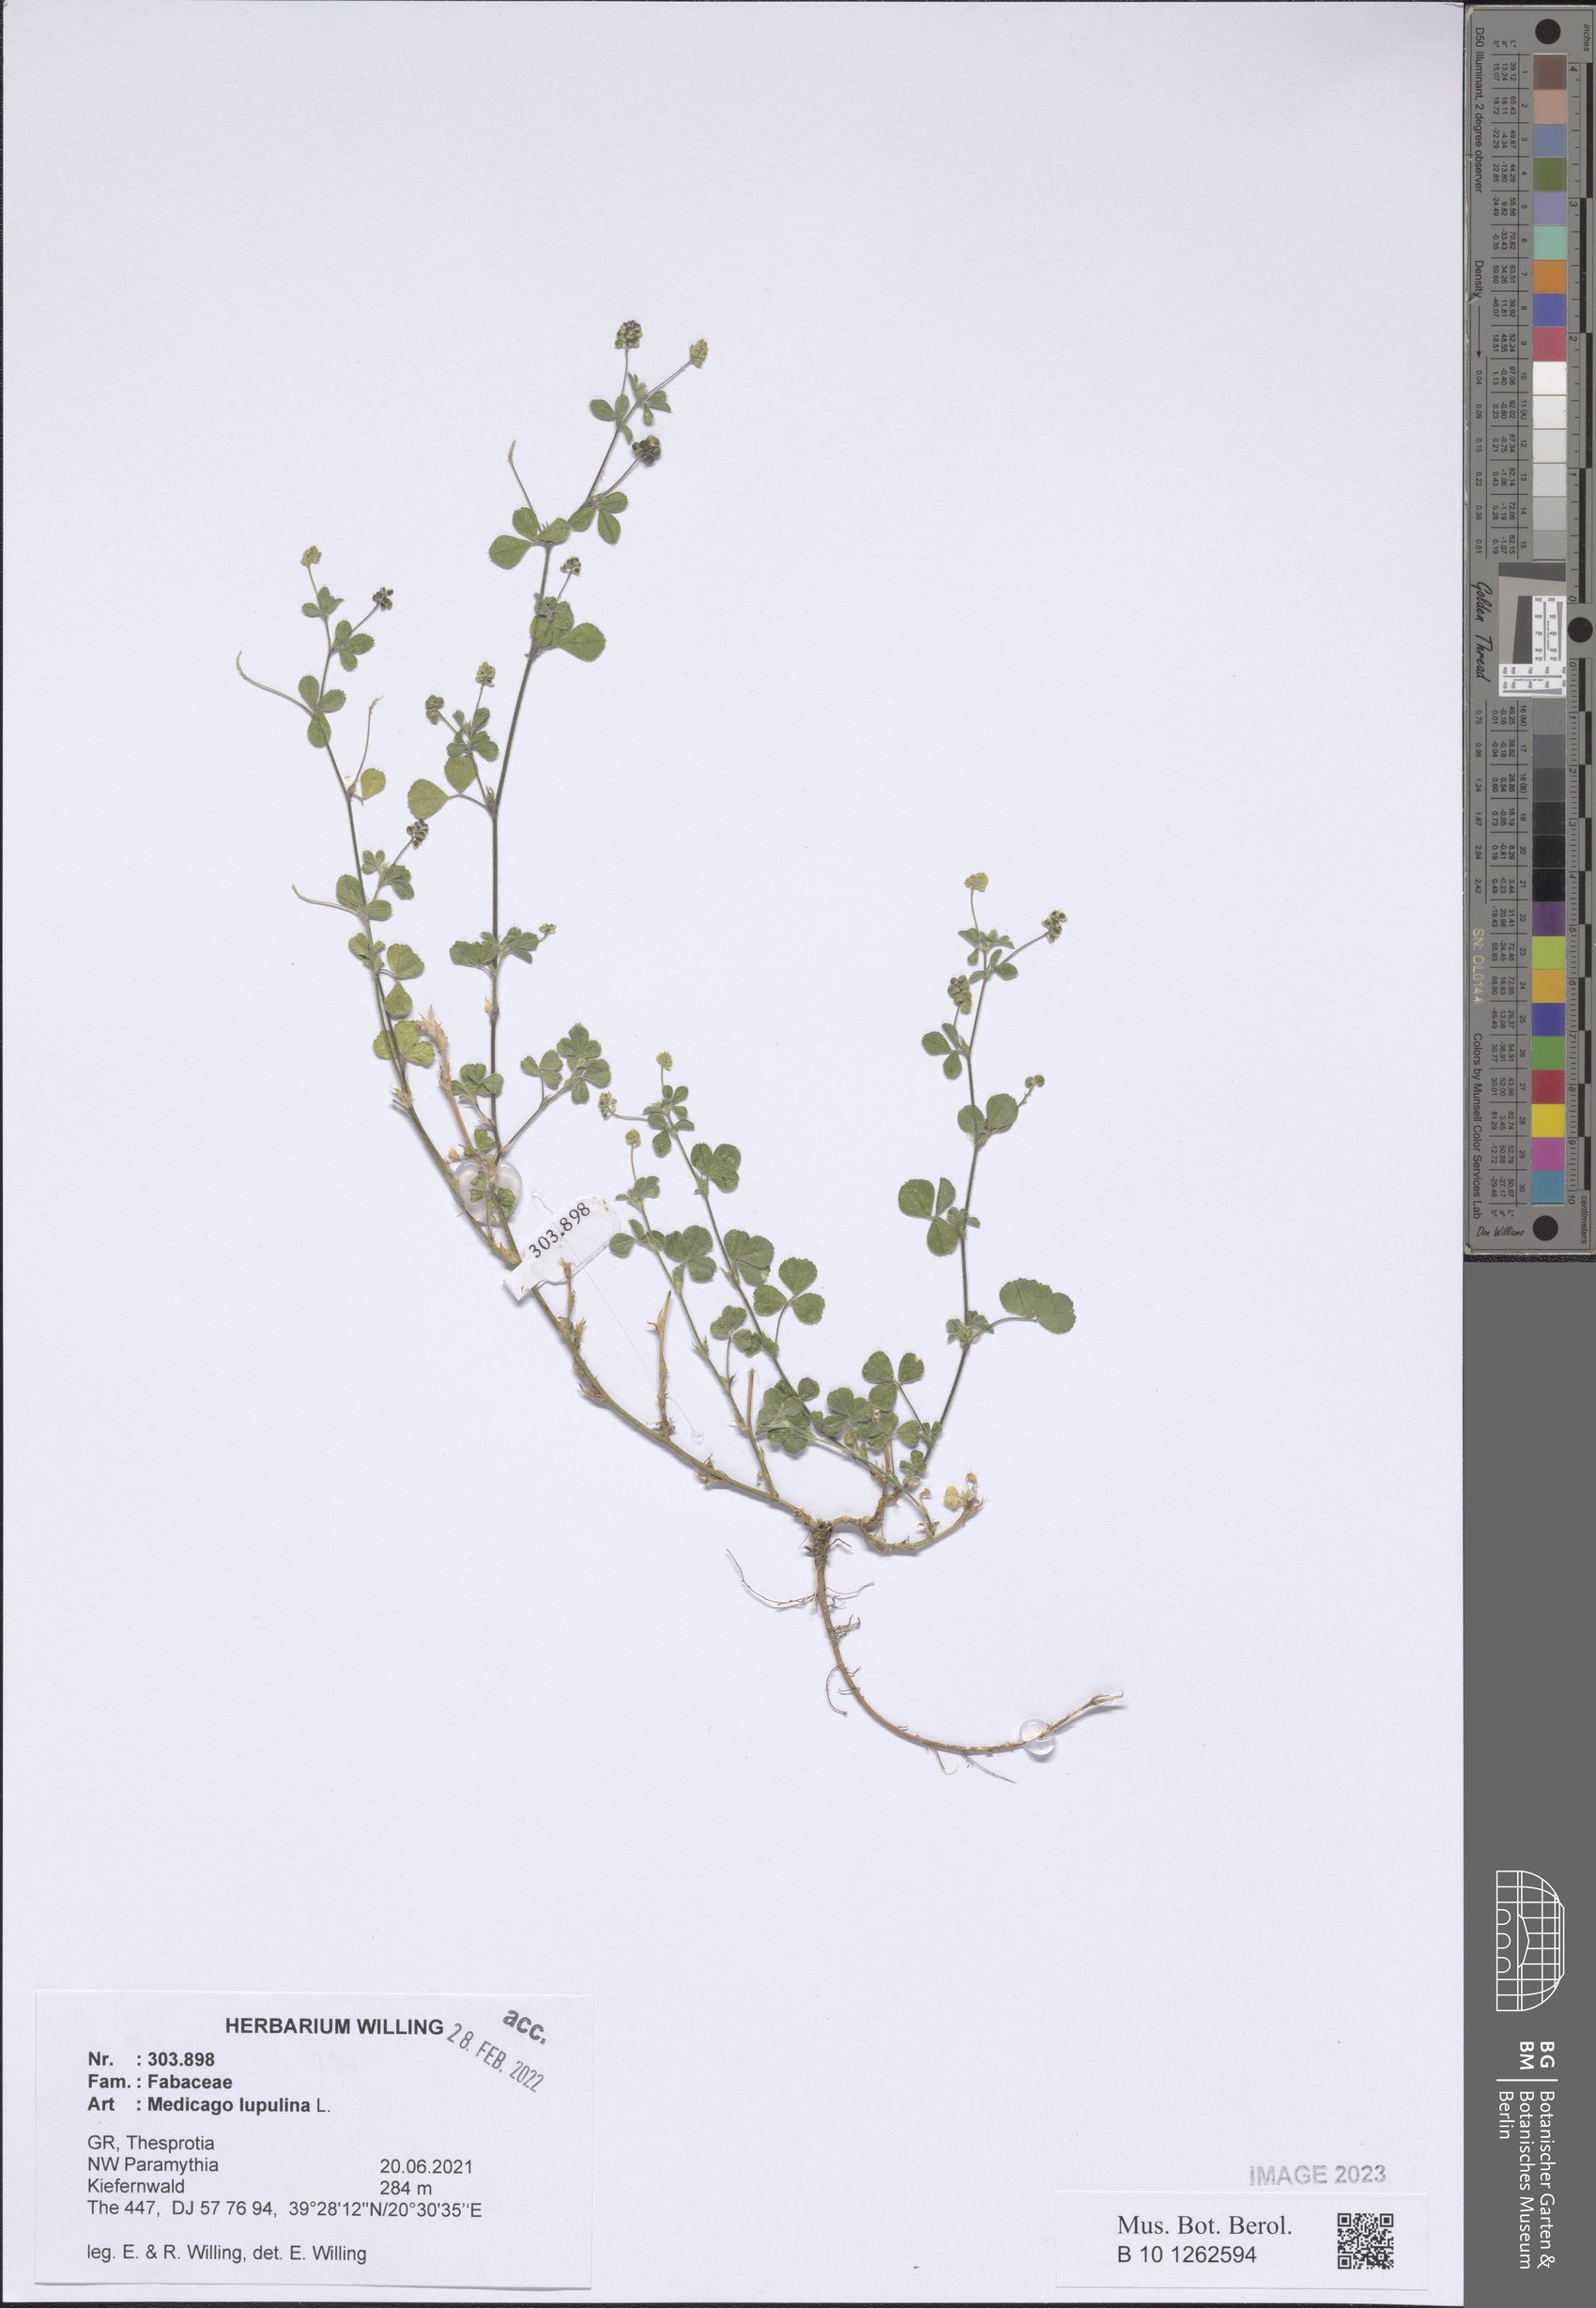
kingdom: Plantae
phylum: Tracheophyta
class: Magnoliopsida
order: Fabales
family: Fabaceae
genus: Medicago
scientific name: Medicago lupulina
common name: Black medick
